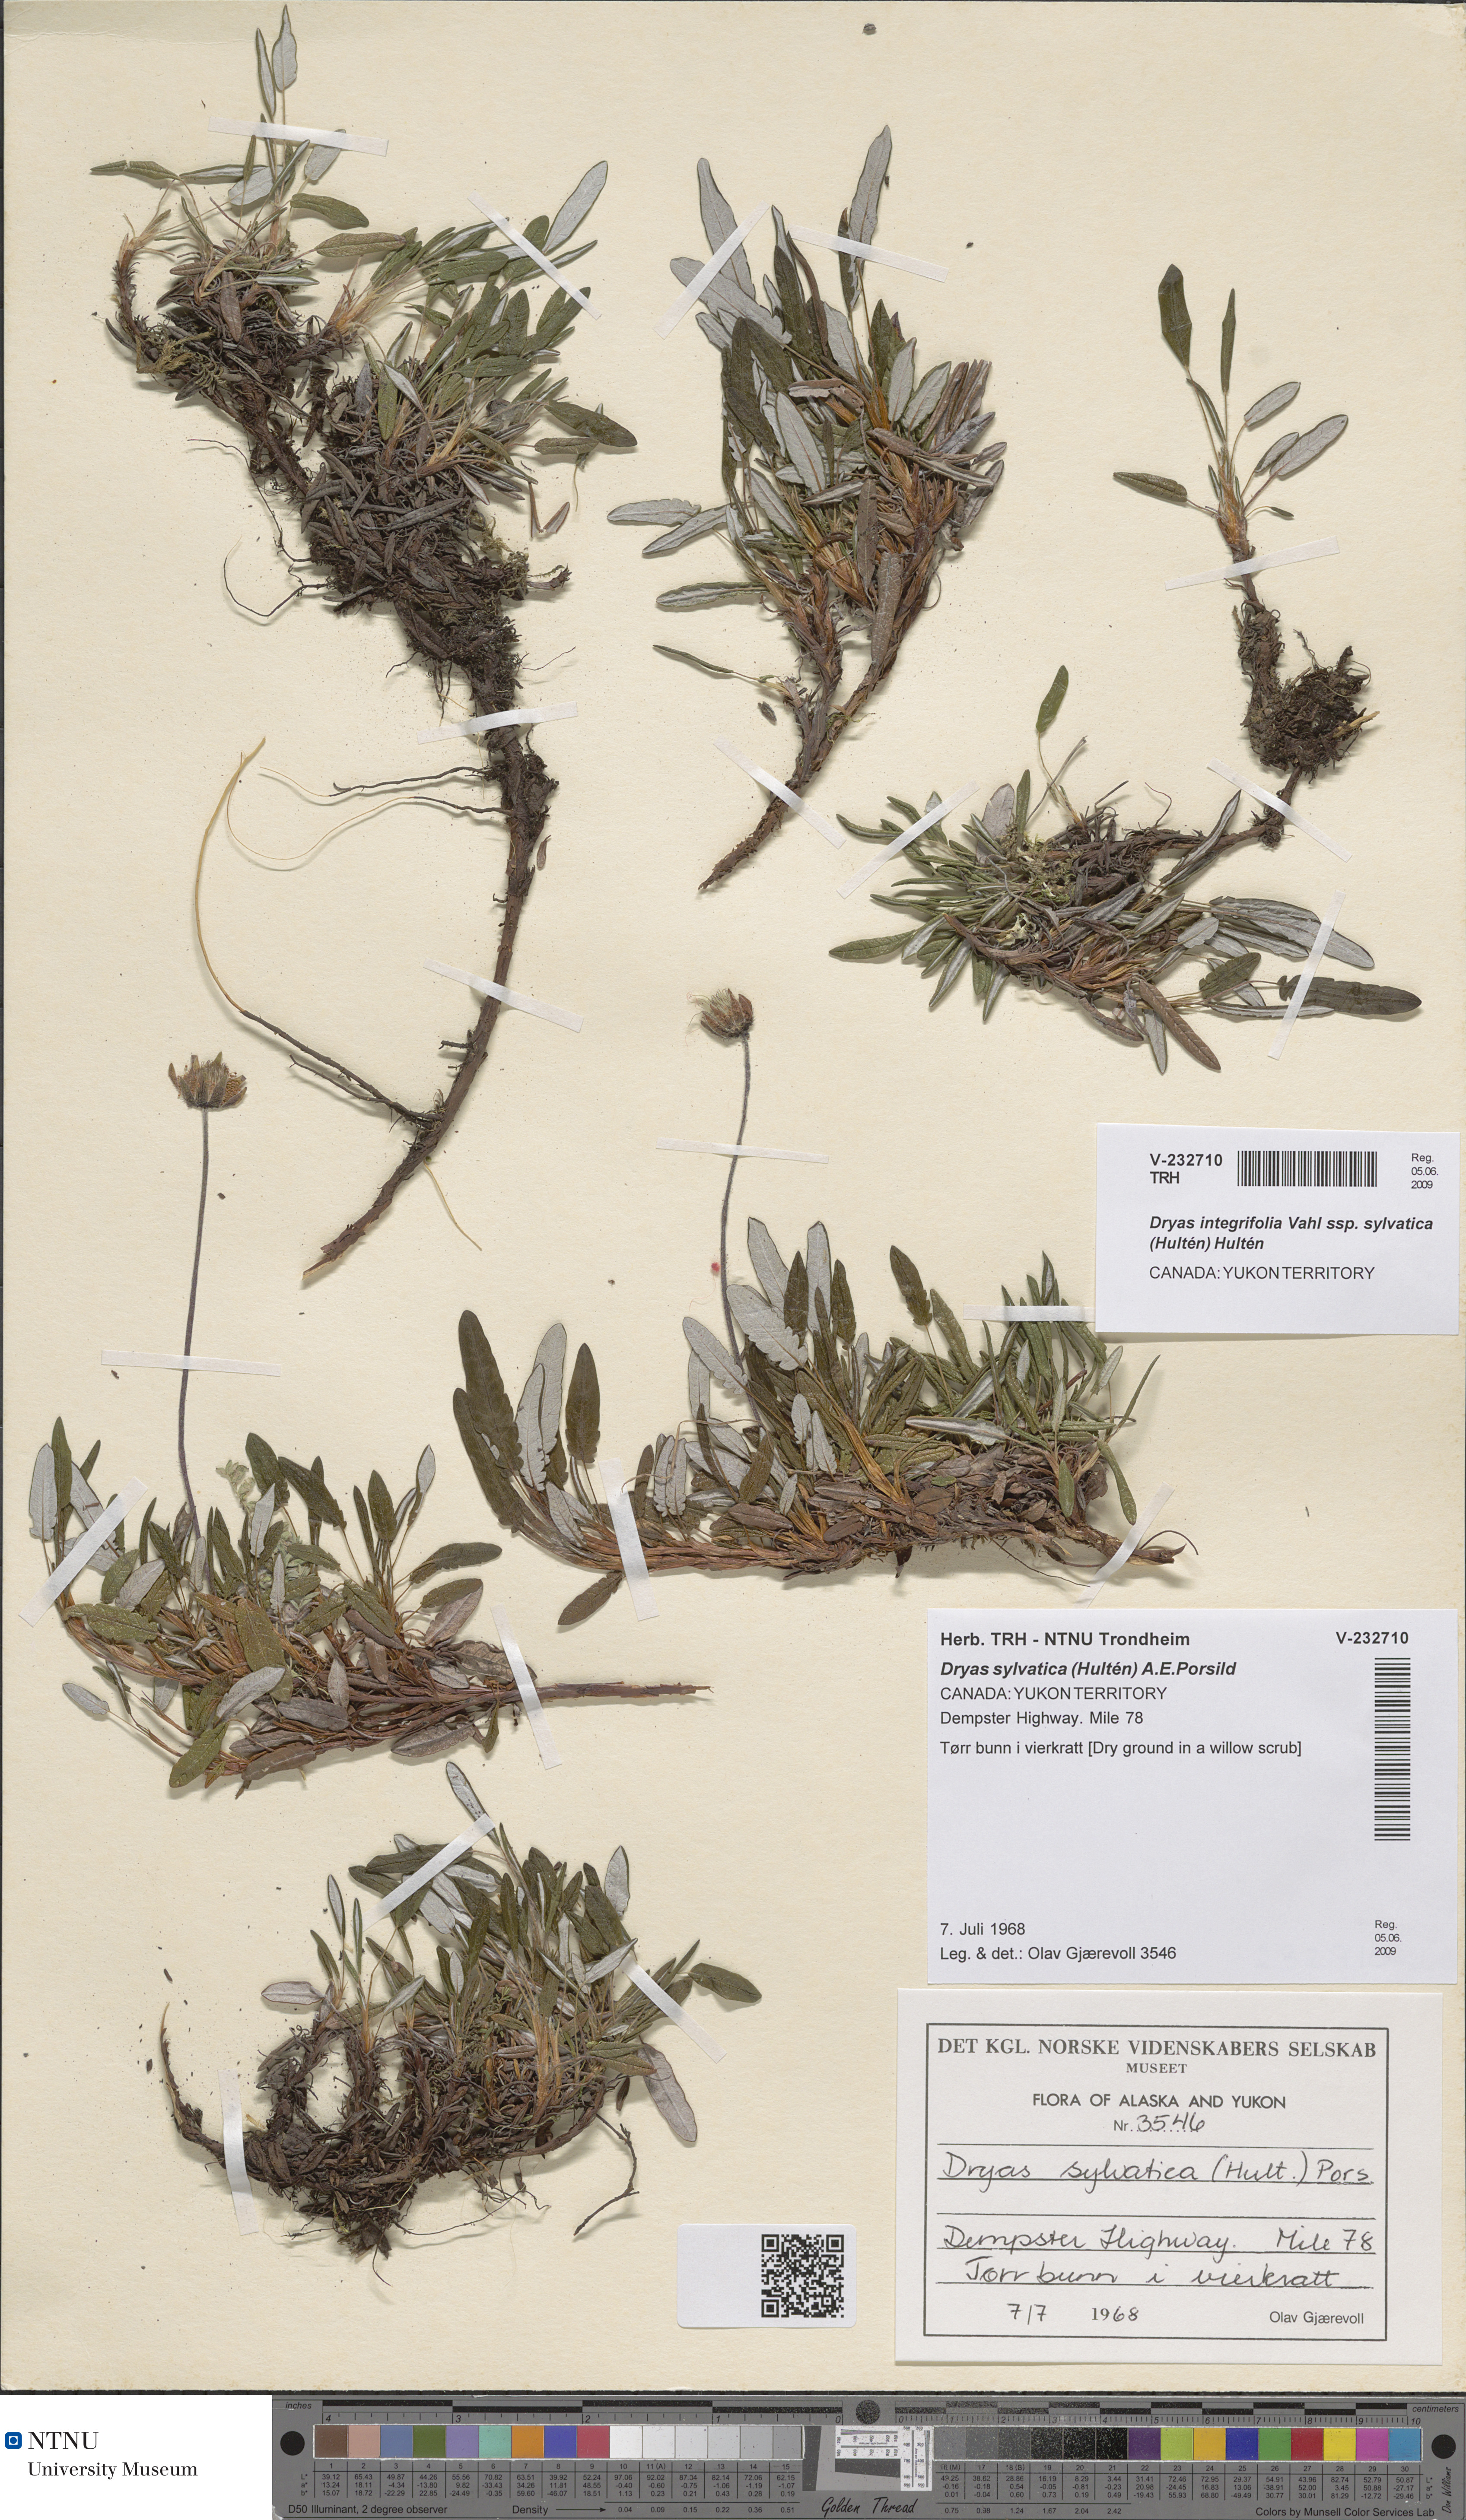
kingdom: Plantae
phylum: Tracheophyta
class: Magnoliopsida
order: Rosales
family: Rosaceae
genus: Dryas
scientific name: Dryas integrifolia
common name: Entire-leaved mountain avens
